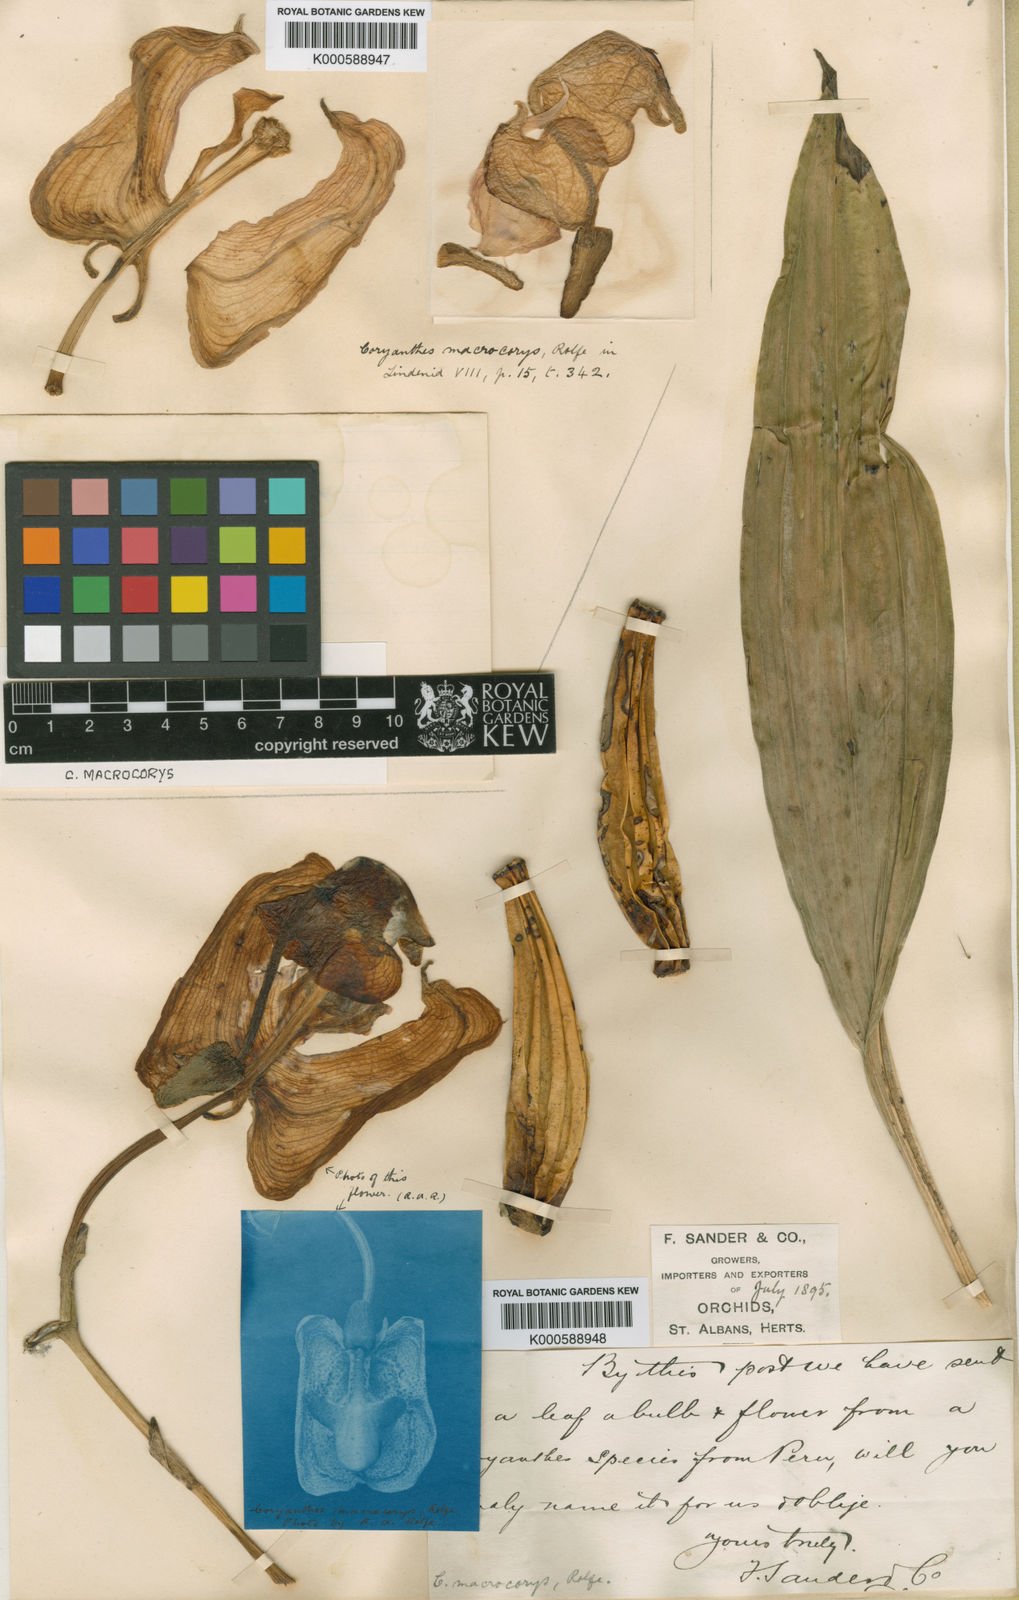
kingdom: Plantae
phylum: Tracheophyta
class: Liliopsida
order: Asparagales
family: Orchidaceae
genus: Coryanthes
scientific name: Coryanthes macrocorys
